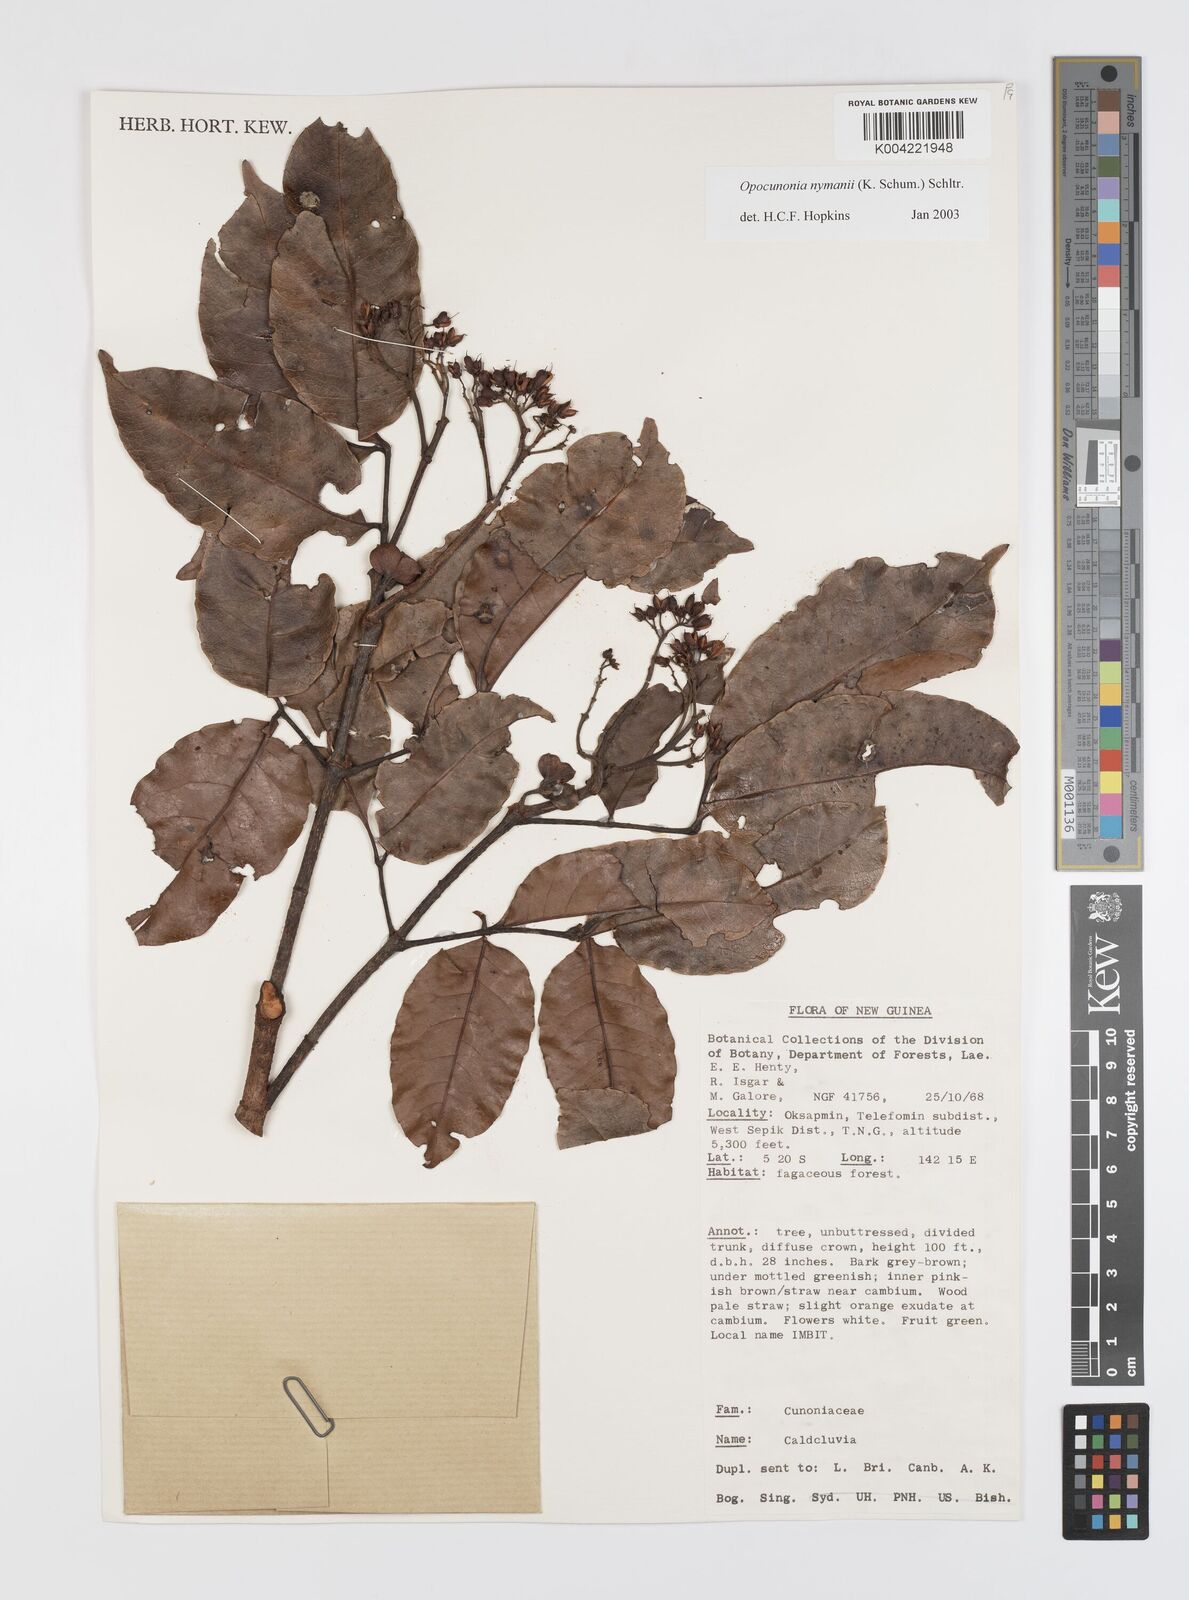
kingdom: Plantae
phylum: Tracheophyta
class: Magnoliopsida
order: Oxalidales
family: Cunoniaceae
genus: Opocunonia
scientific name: Opocunonia nymanii
